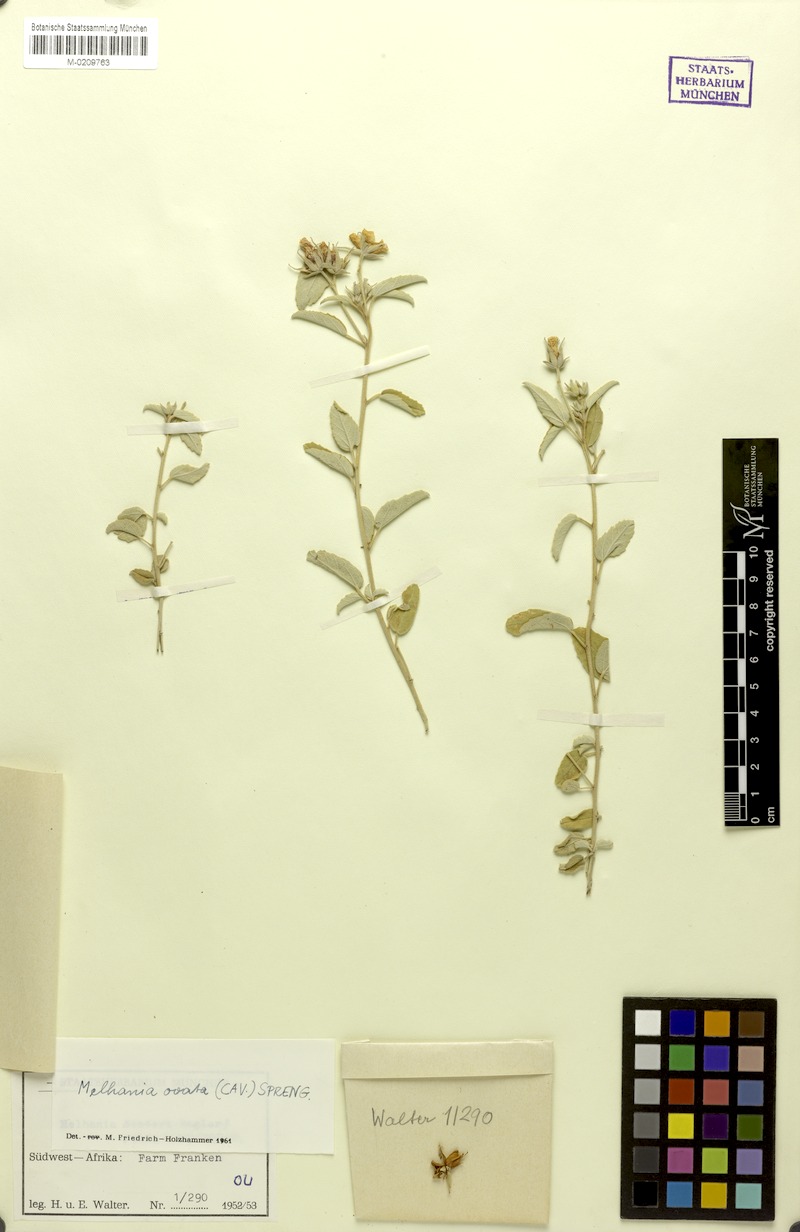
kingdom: Plantae
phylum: Tracheophyta
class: Magnoliopsida
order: Malvales
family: Malvaceae
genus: Melhania
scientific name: Melhania ovata
